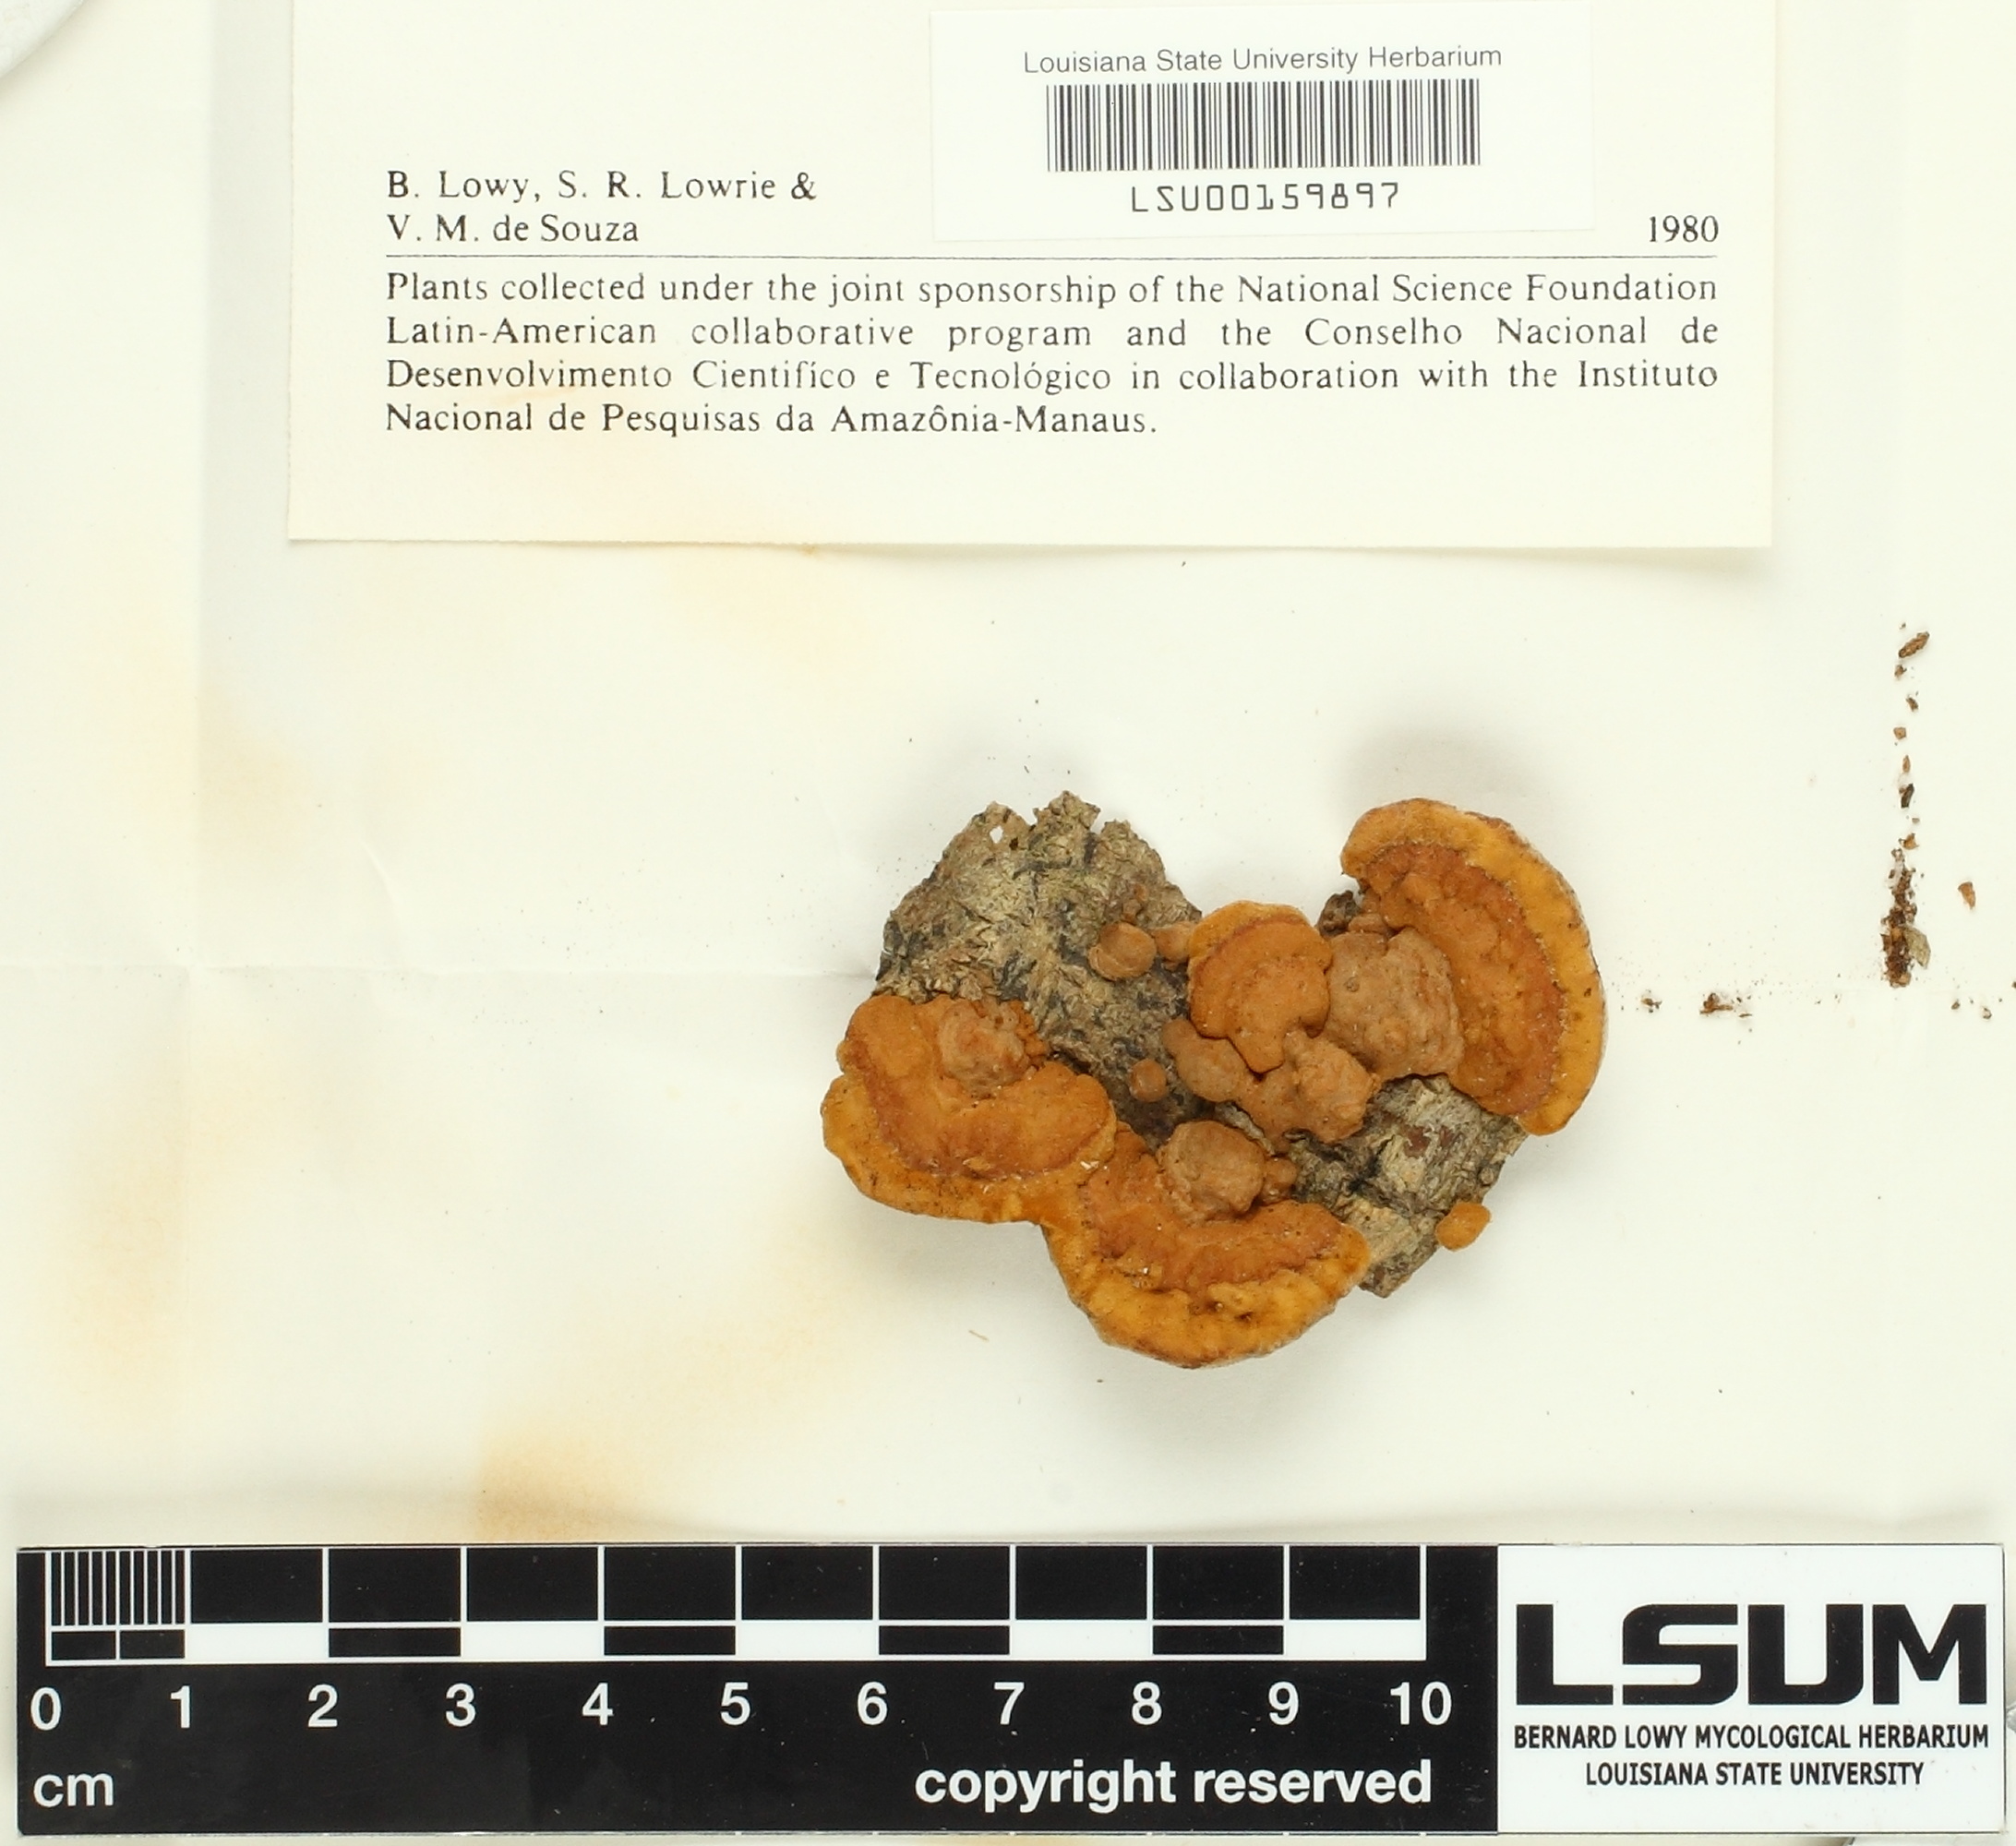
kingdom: Fungi
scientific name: Fungi
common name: Fungi
